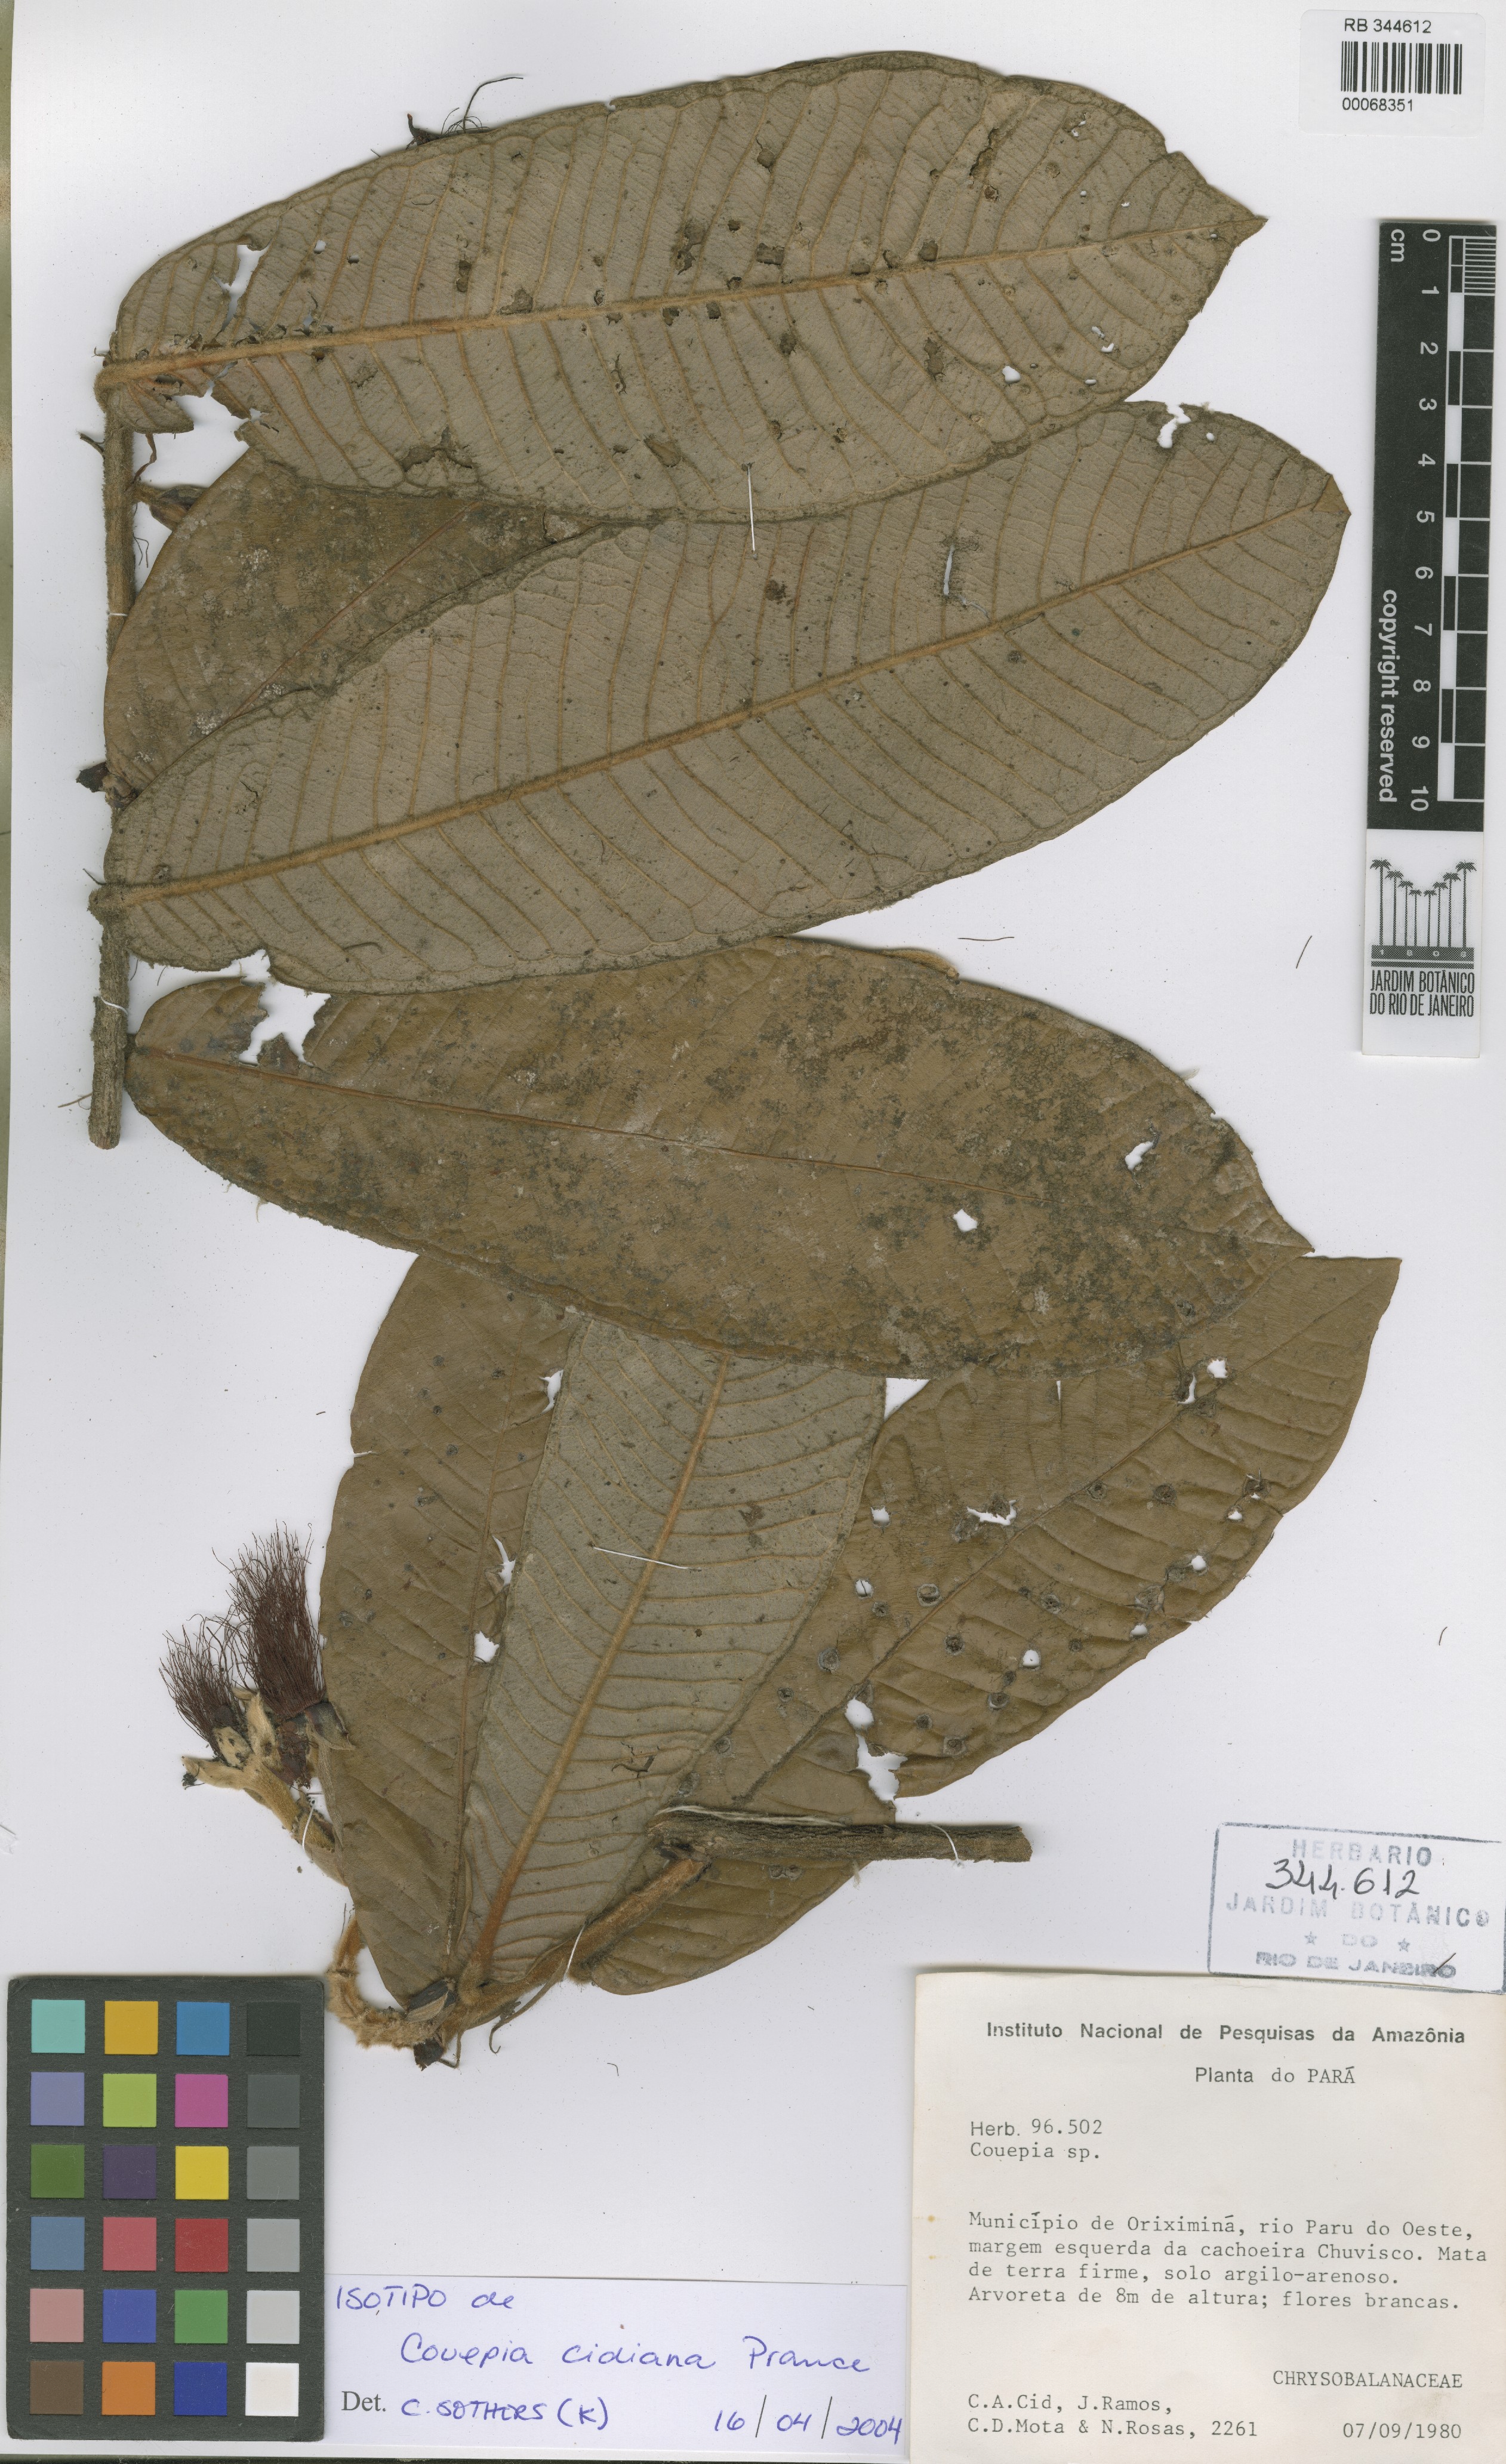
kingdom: Plantae
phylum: Tracheophyta
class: Magnoliopsida
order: Malpighiales
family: Chrysobalanaceae
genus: Couepia
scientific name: Couepia cidiana
